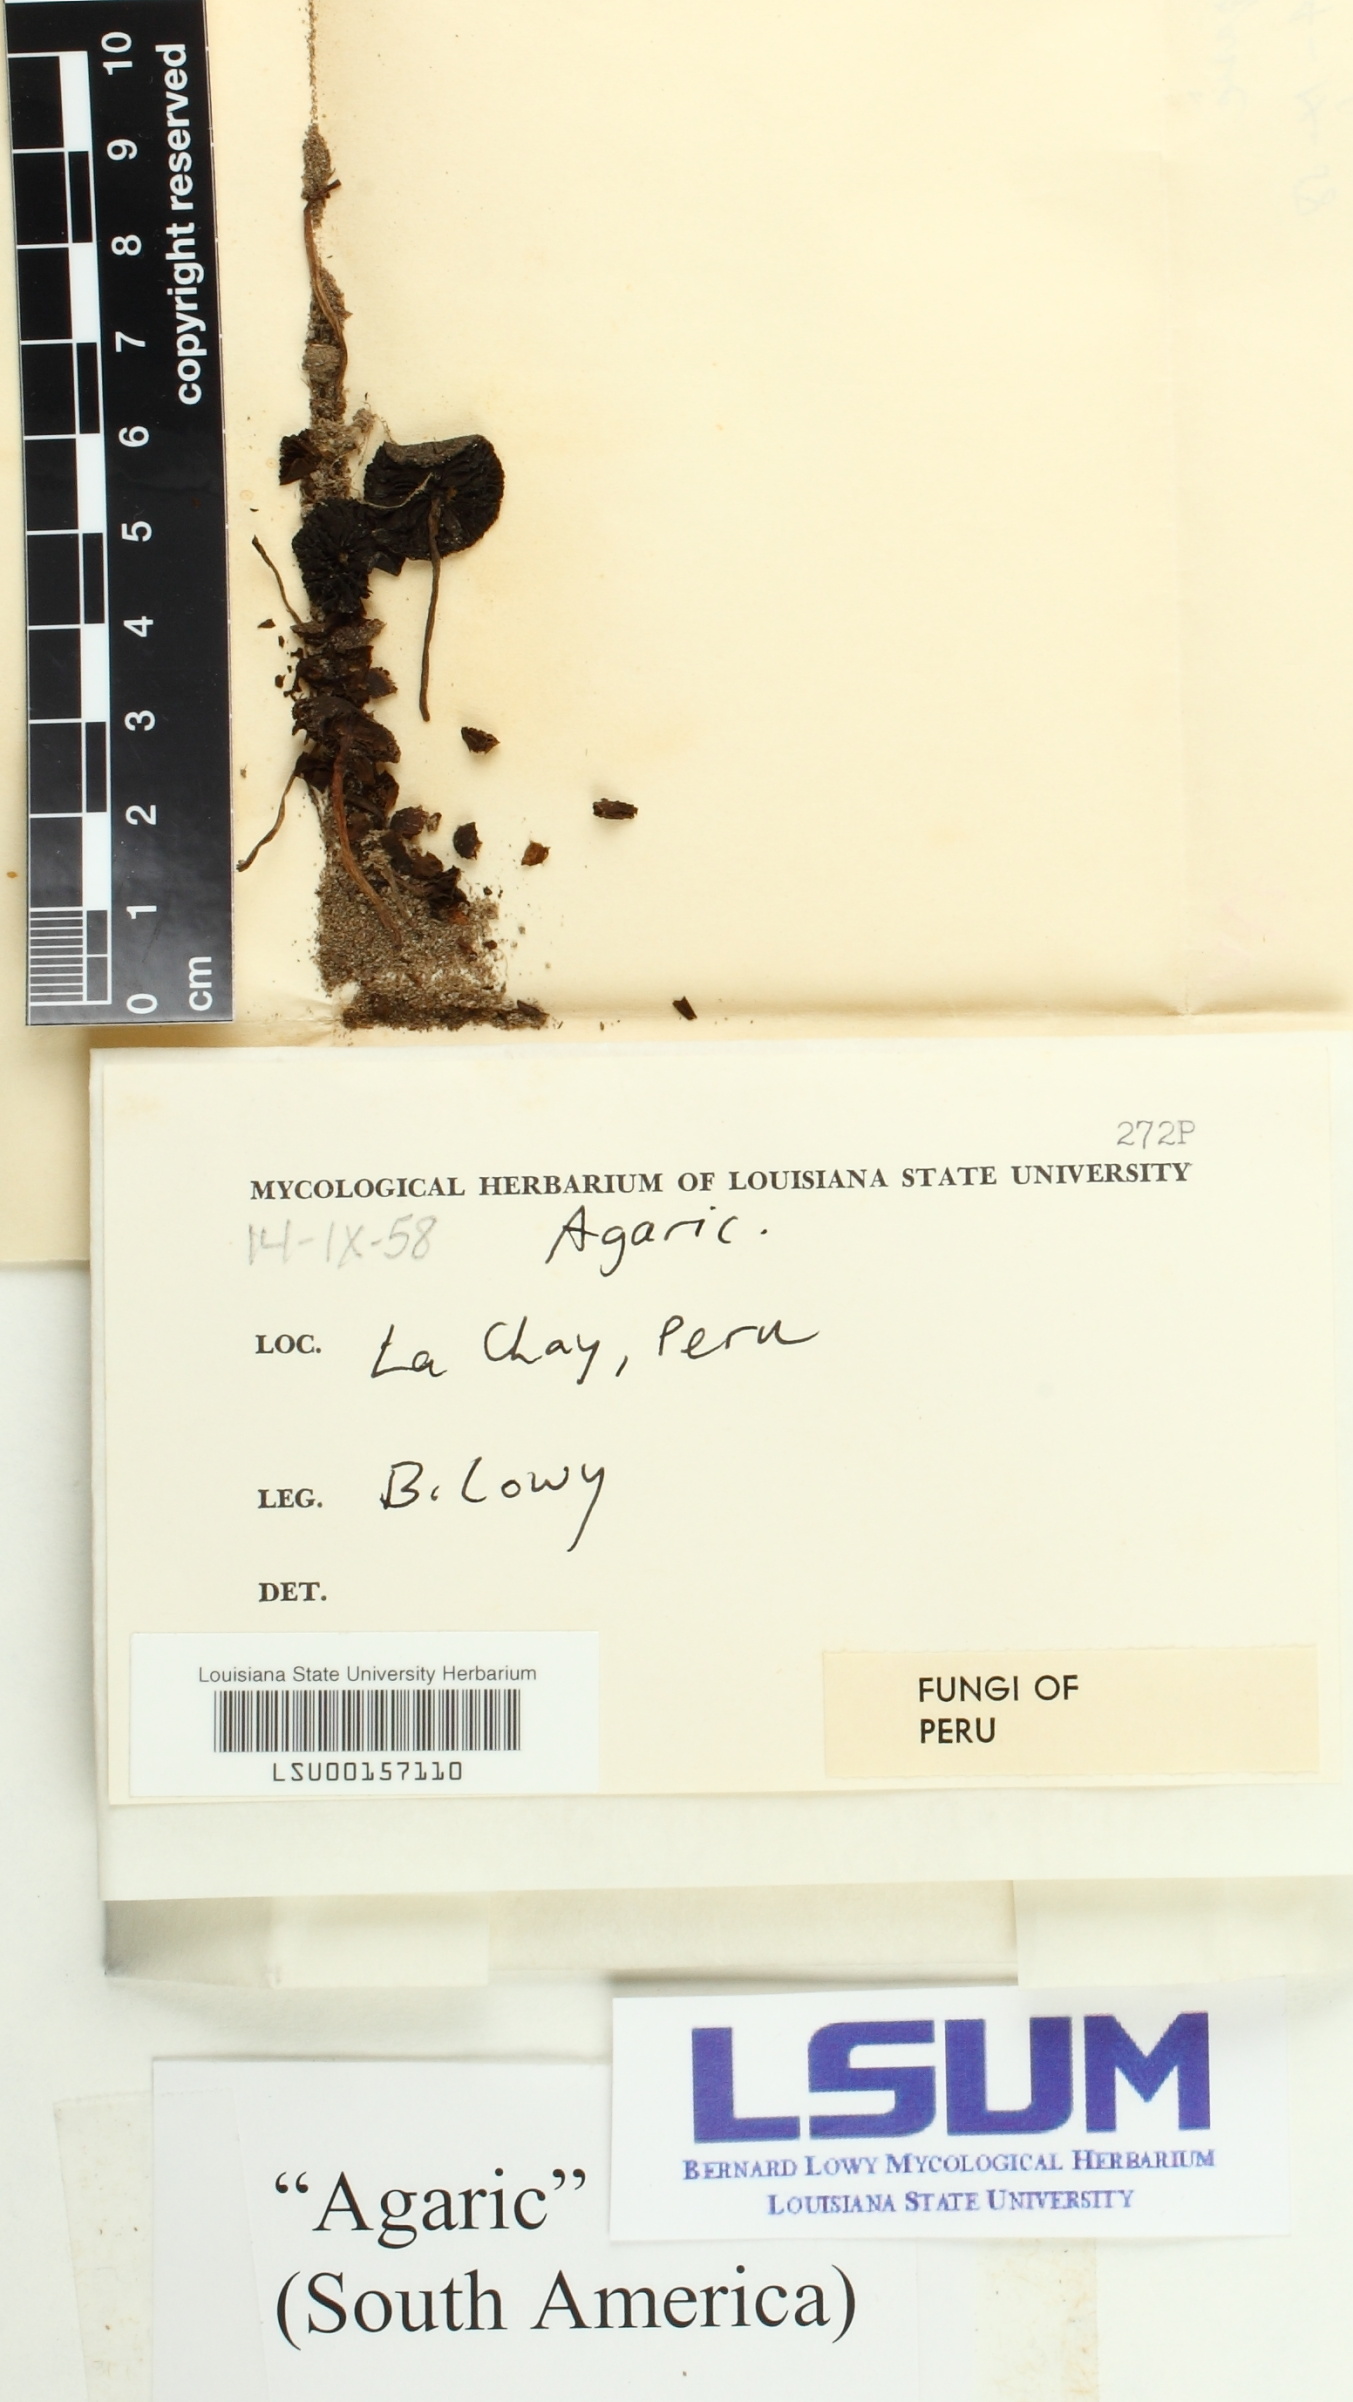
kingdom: Fungi
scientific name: Fungi
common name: Fungi
